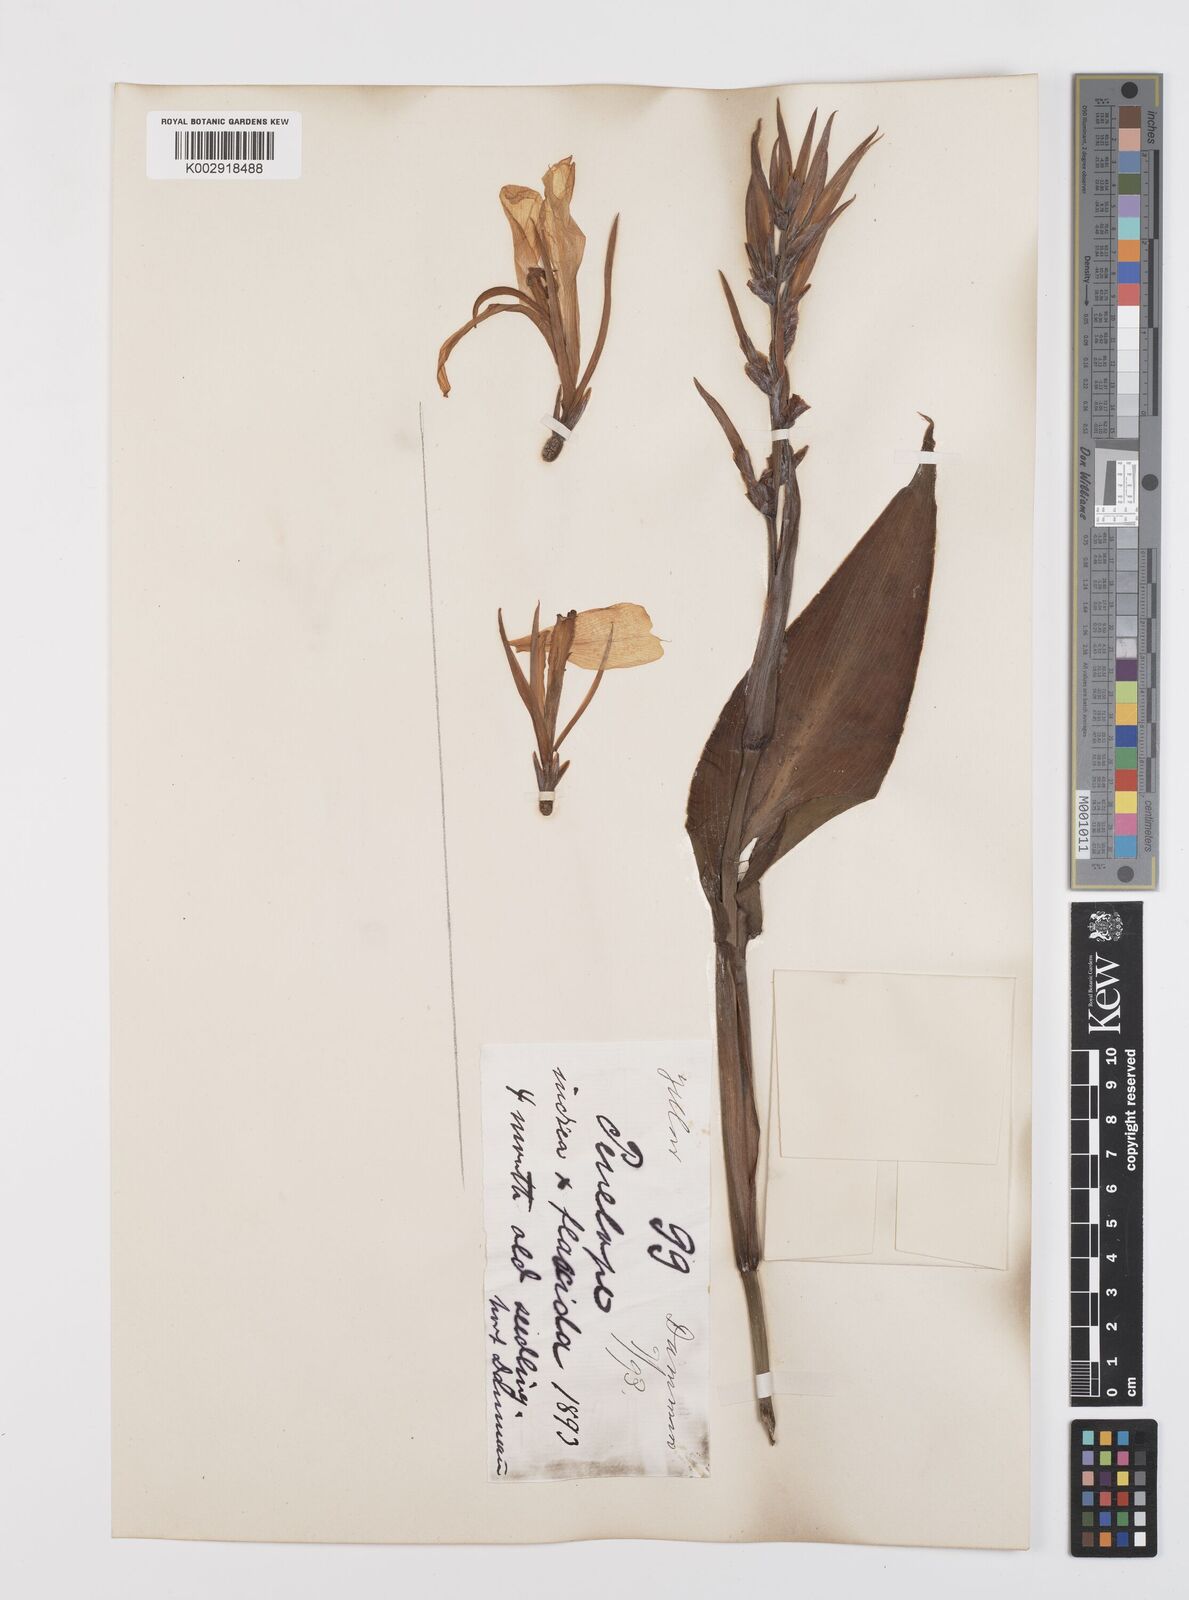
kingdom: Plantae
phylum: Tracheophyta
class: Liliopsida
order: Zingiberales
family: Cannaceae
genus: Canna
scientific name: Canna indica
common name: Indian shot
